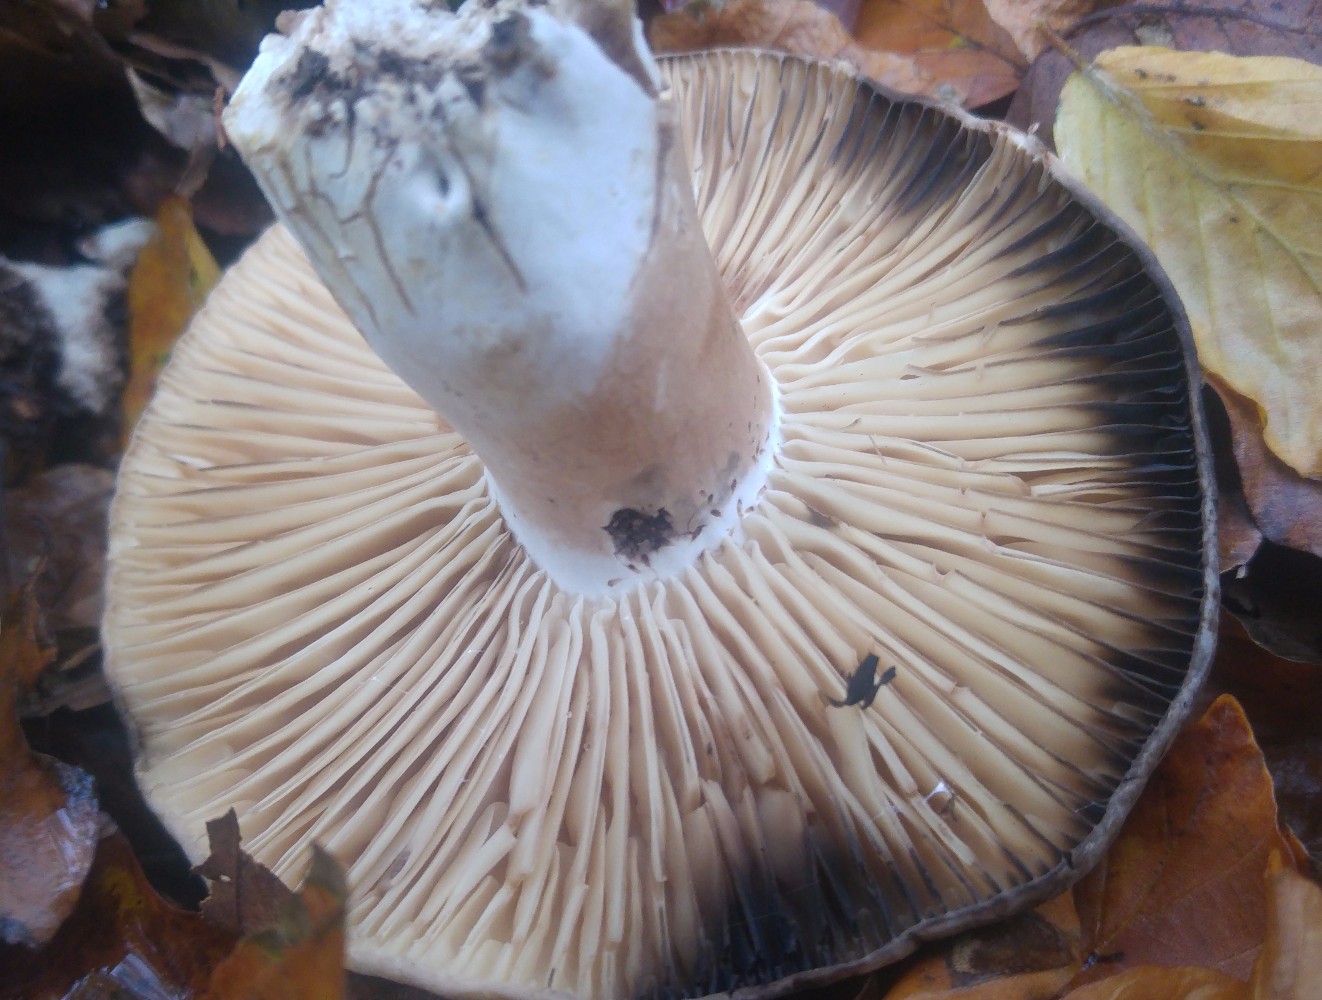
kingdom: Fungi
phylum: Basidiomycota
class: Agaricomycetes
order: Russulales
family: Russulaceae
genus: Russula
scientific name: Russula adusta
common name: sværtende skørhat
